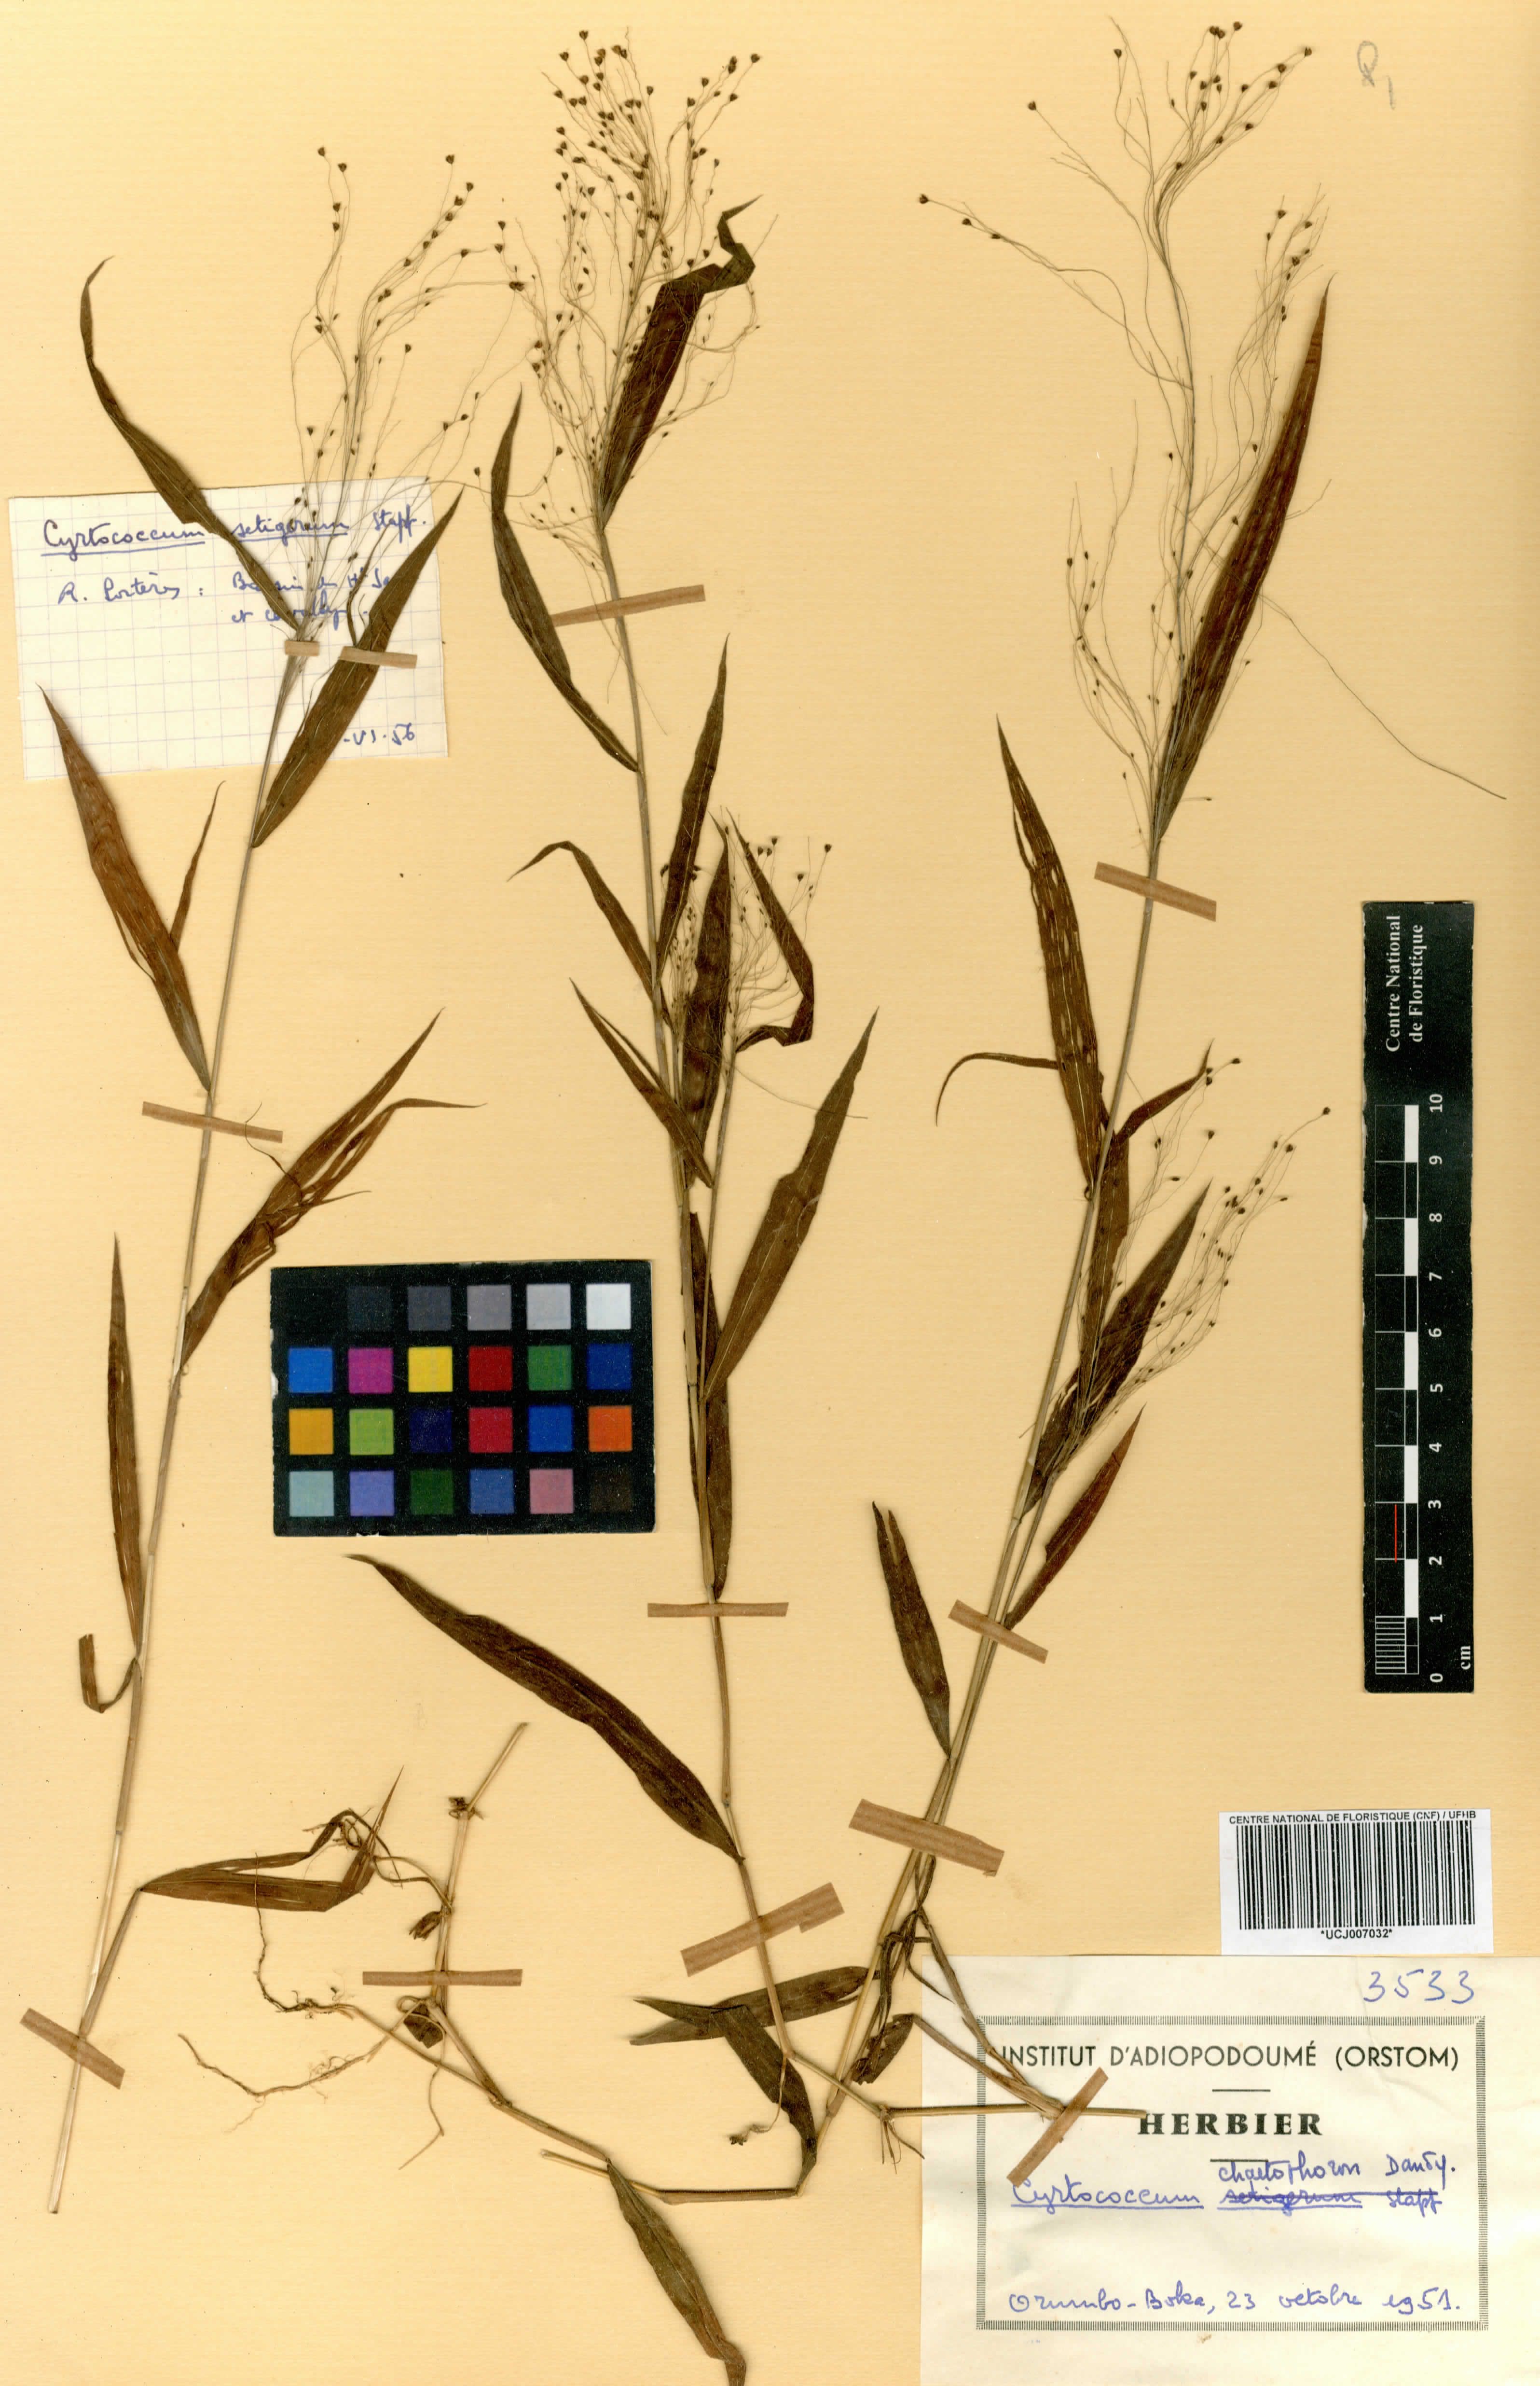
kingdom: Plantae
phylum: Tracheophyta
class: Liliopsida
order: Poales
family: Poaceae
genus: Cyrtococcum
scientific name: Cyrtococcum chaetophoron
